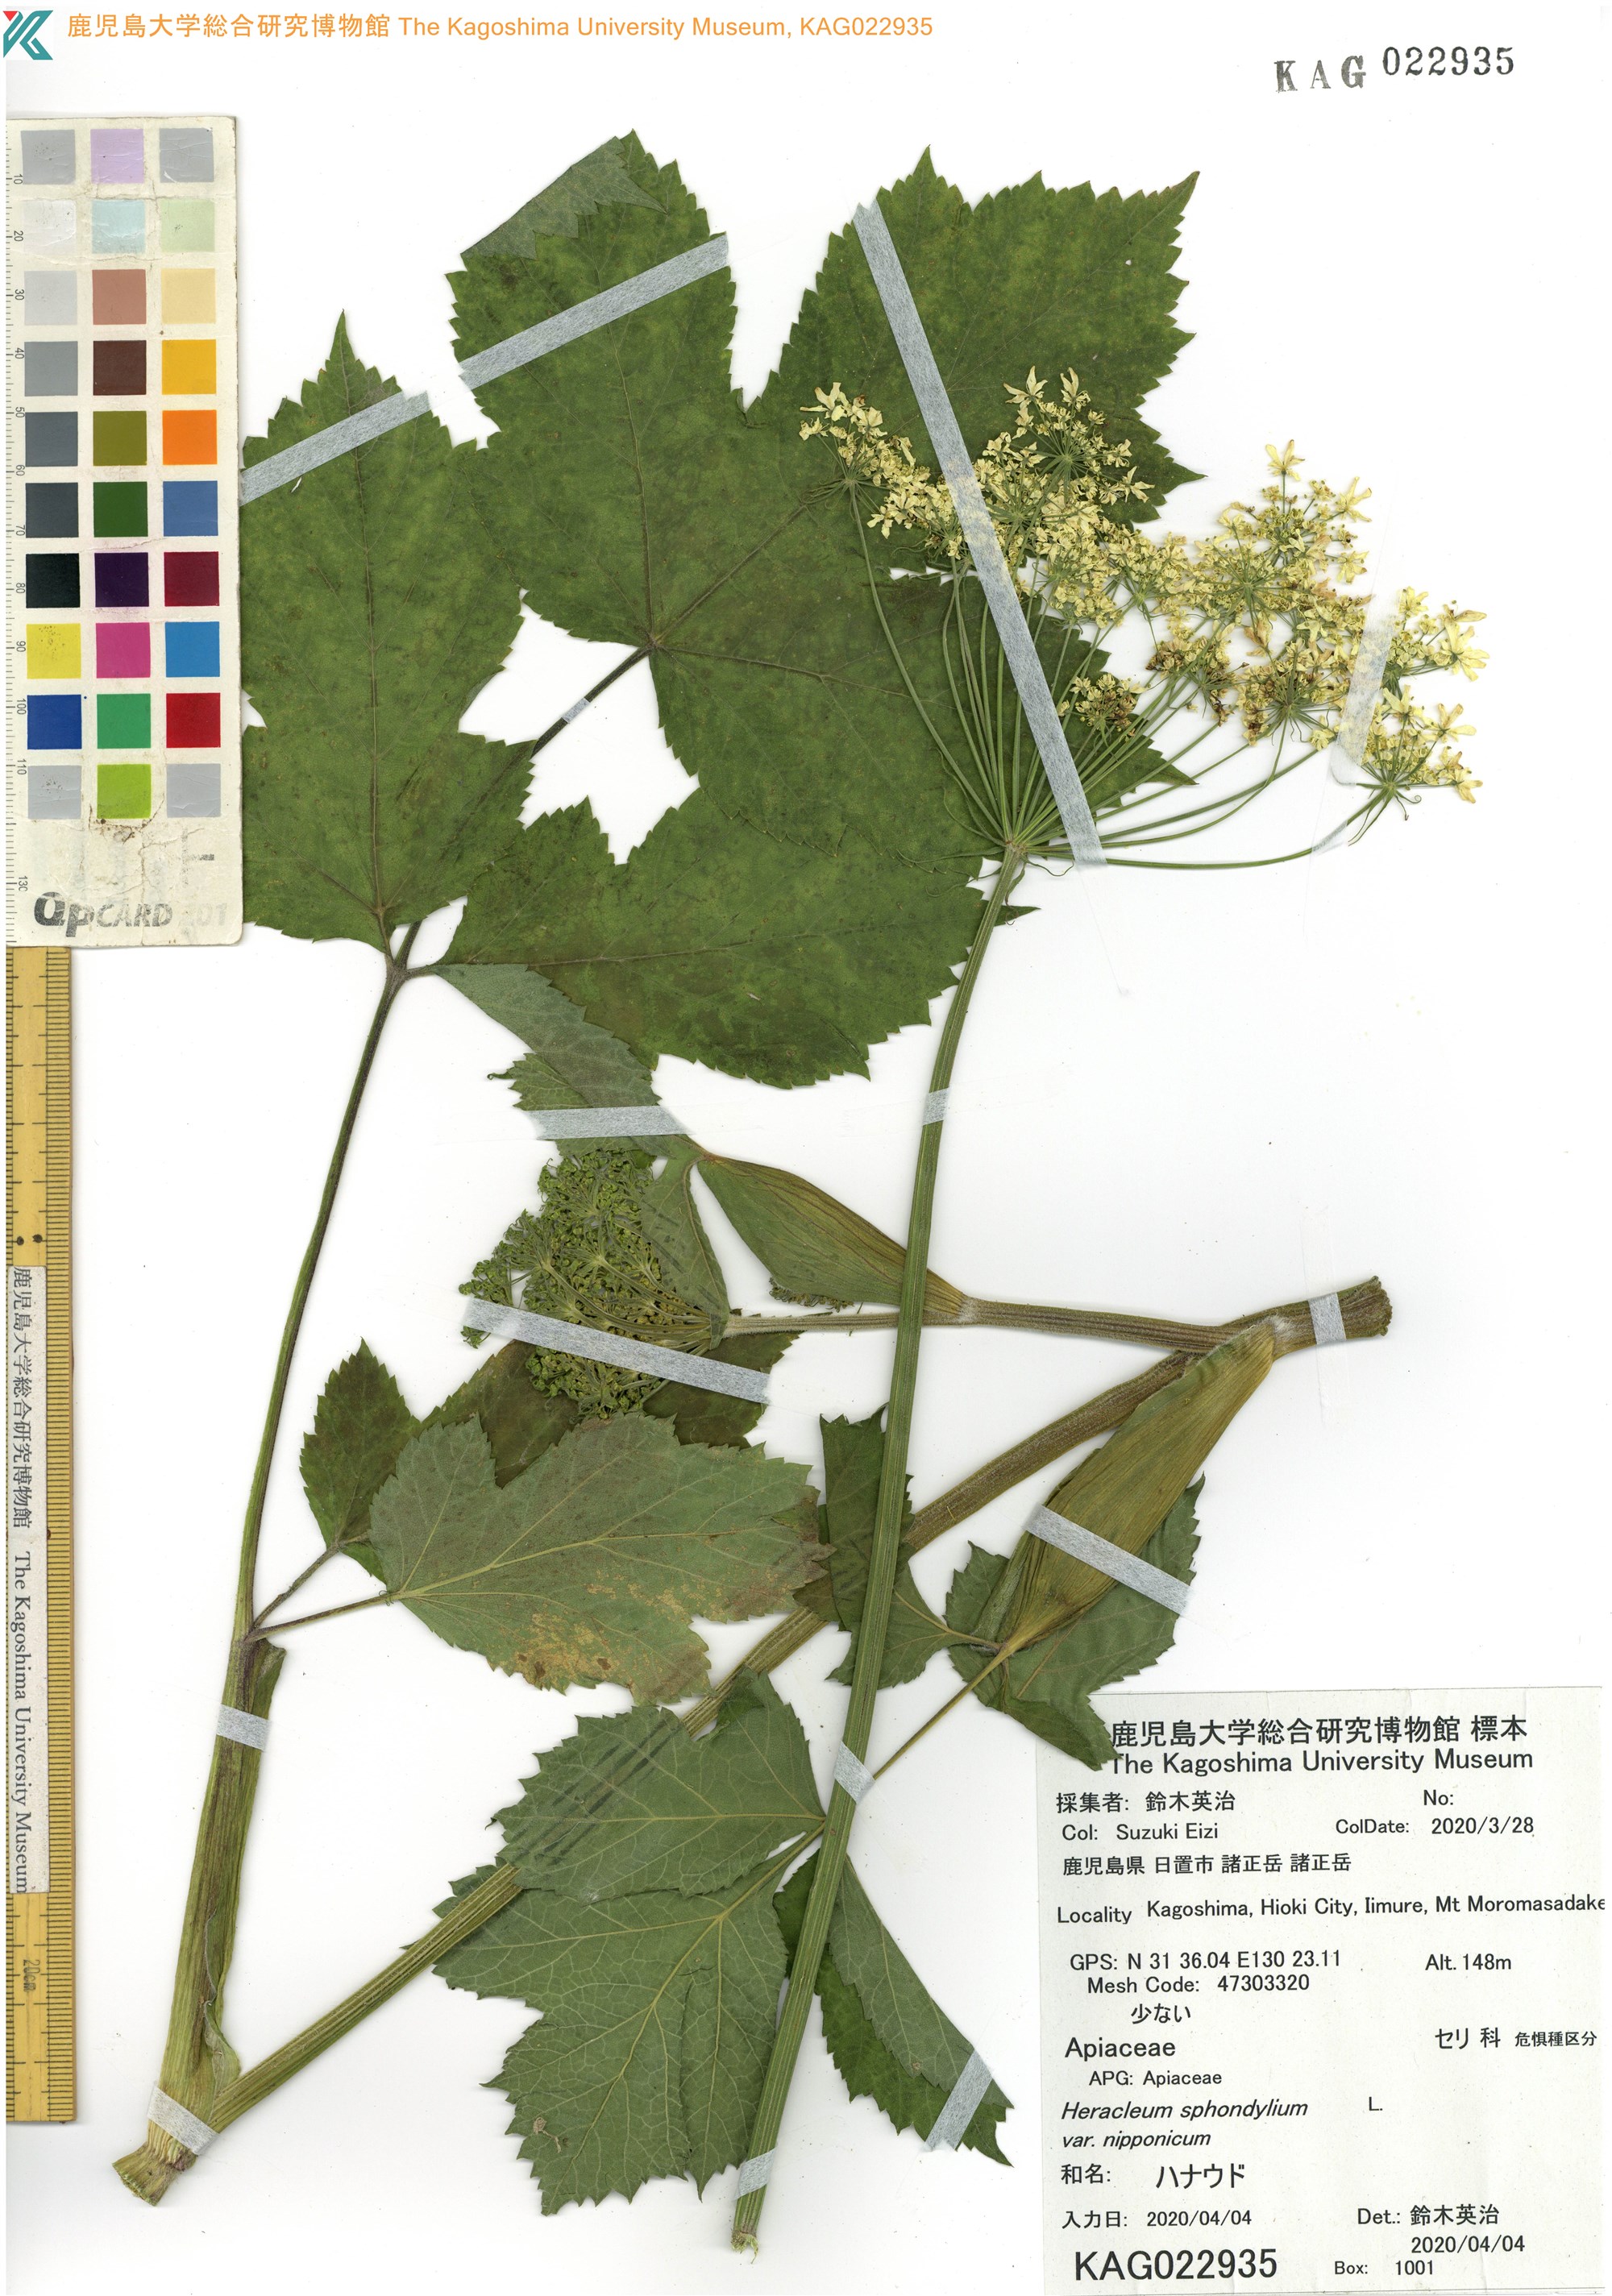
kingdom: Plantae
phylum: Tracheophyta
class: Magnoliopsida
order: Apiales
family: Apiaceae
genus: Heracleum
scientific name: Heracleum moellendorffii
